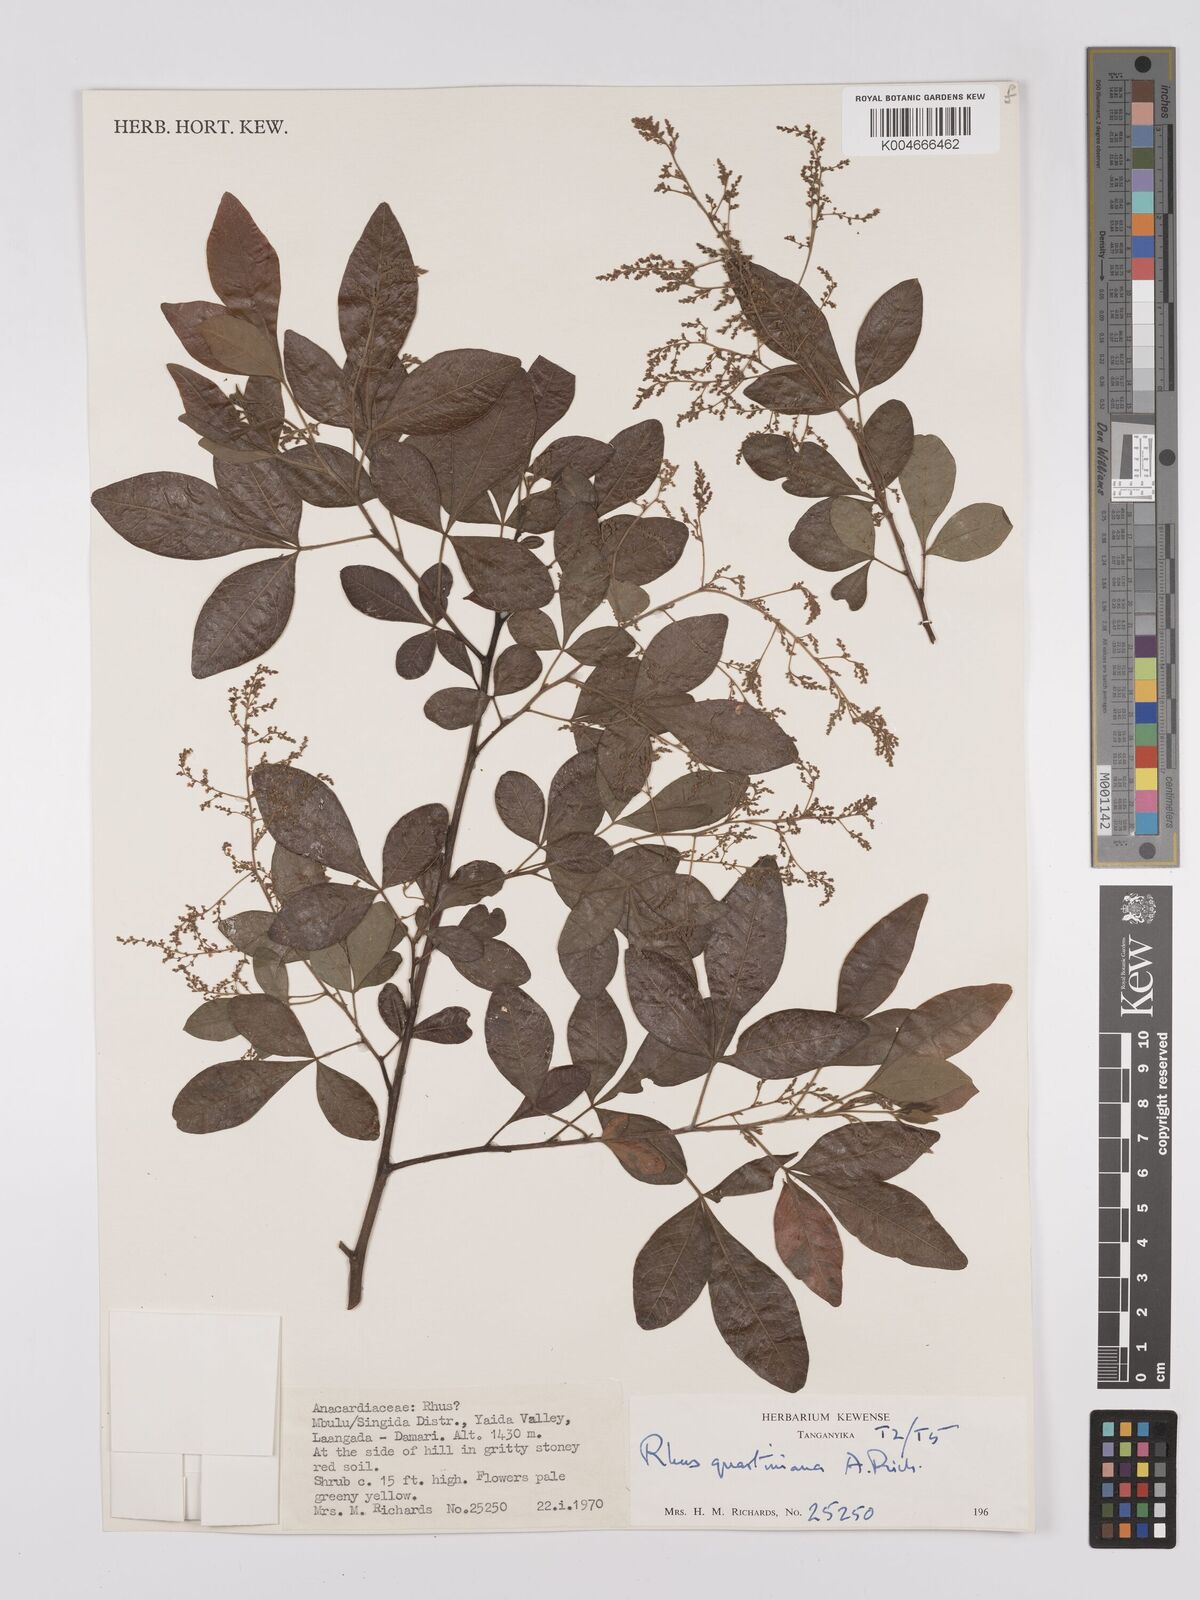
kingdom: Plantae
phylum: Tracheophyta
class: Magnoliopsida
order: Sapindales
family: Anacardiaceae
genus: Searsia
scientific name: Searsia quartiniana
